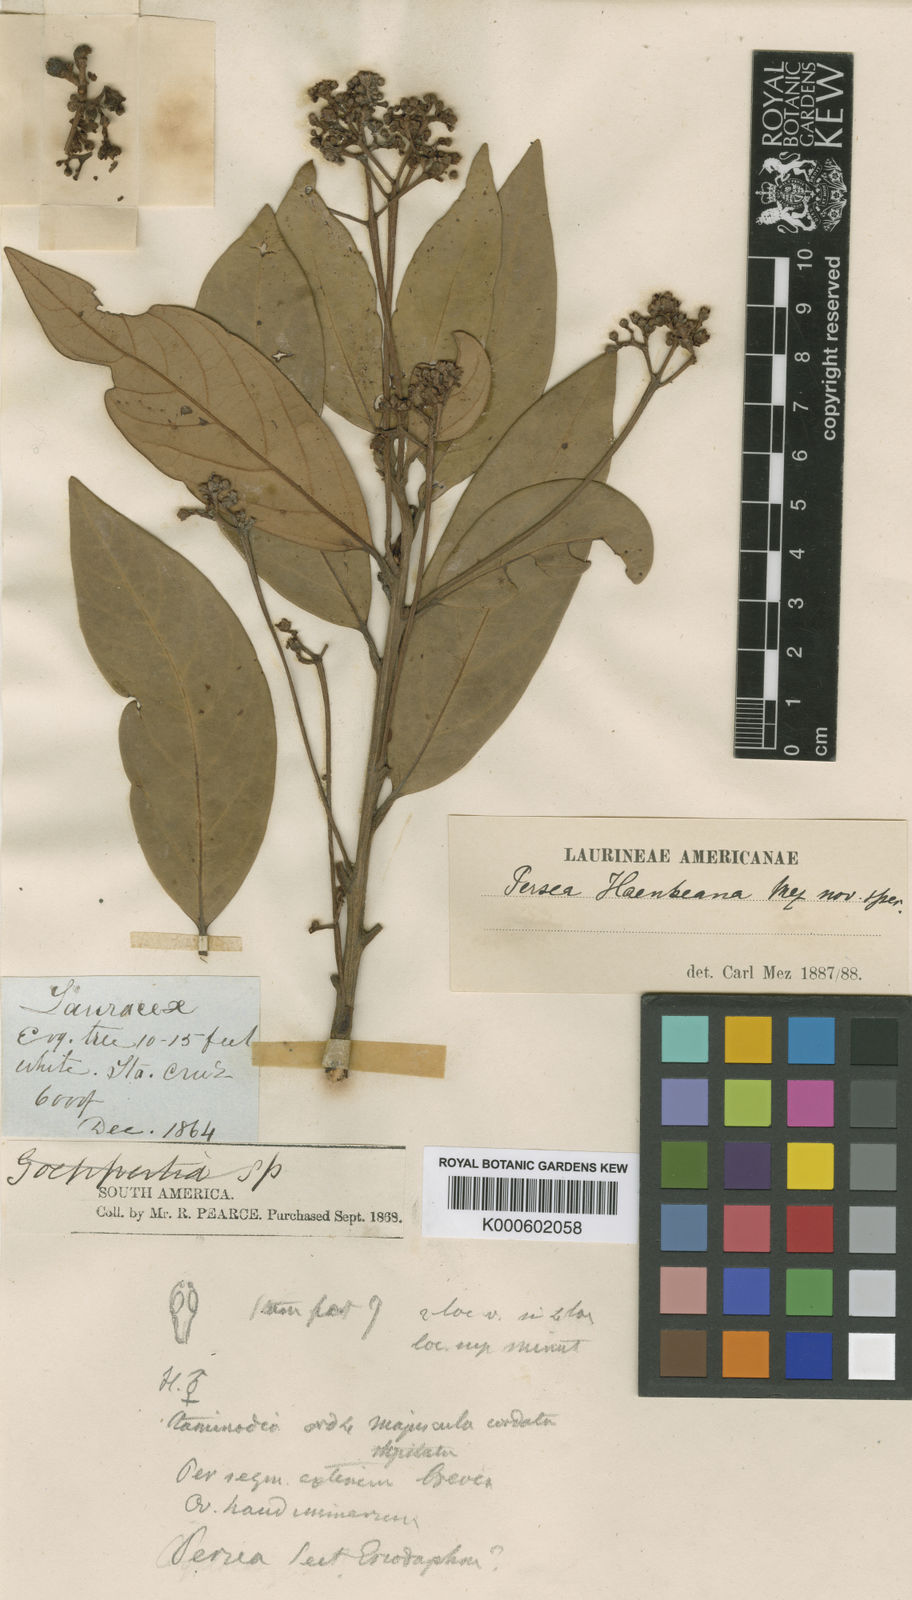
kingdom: Plantae
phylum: Tracheophyta
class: Magnoliopsida
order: Laurales
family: Lauraceae
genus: Persea
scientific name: Persea haenkeana
